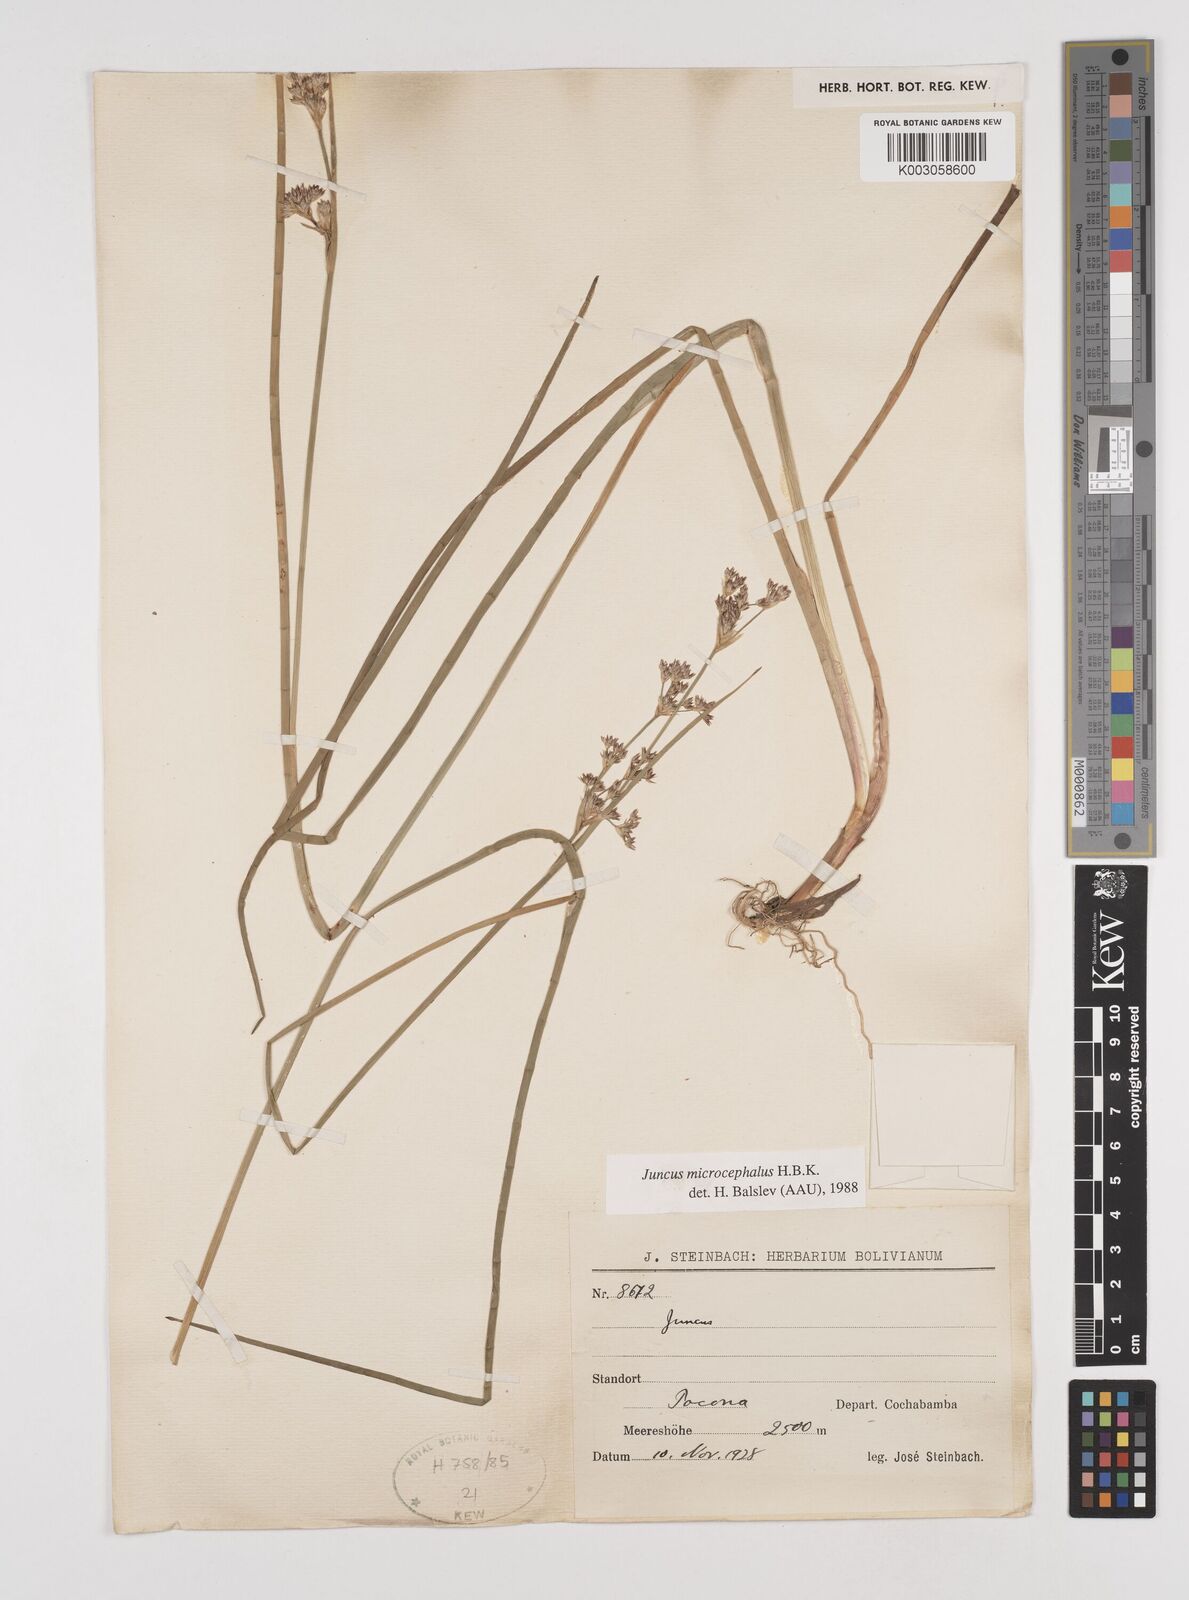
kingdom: Plantae
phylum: Tracheophyta
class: Liliopsida
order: Poales
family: Juncaceae
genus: Juncus
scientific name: Juncus
